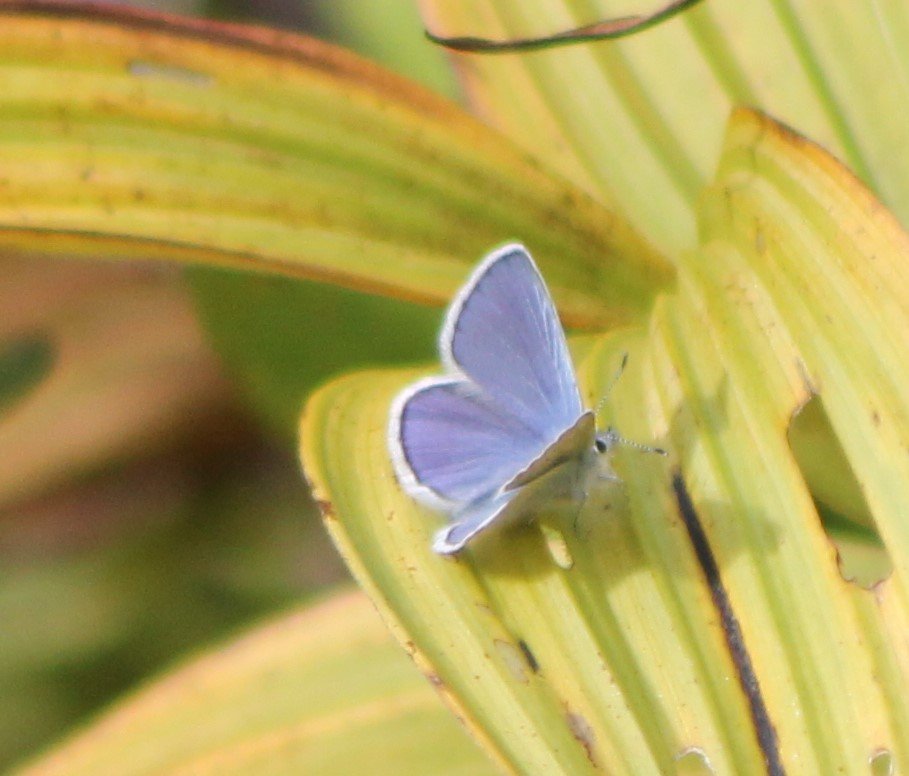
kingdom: Animalia
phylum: Arthropoda
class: Insecta
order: Lepidoptera
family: Lycaenidae
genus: Lycaeides
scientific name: Lycaeides anna
